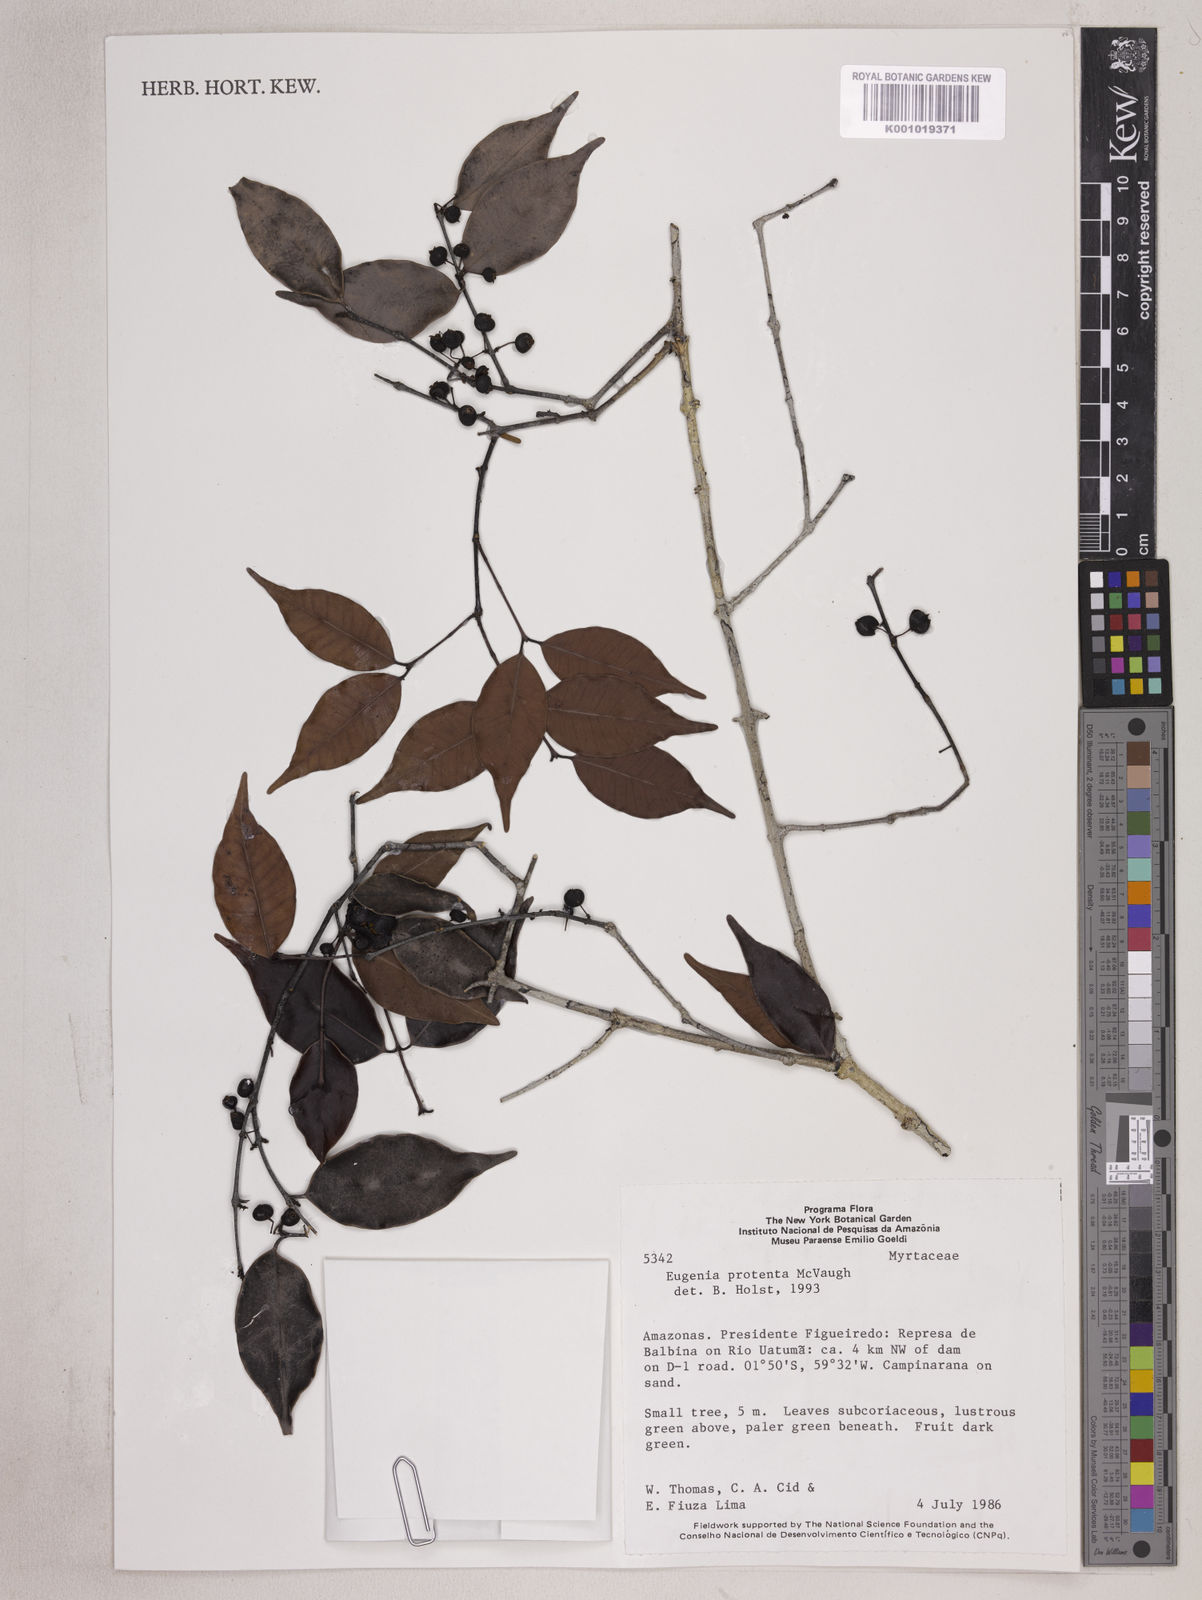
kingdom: Plantae
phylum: Tracheophyta
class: Magnoliopsida
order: Myrtales
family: Myrtaceae
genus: Eugenia
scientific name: Eugenia protenta
